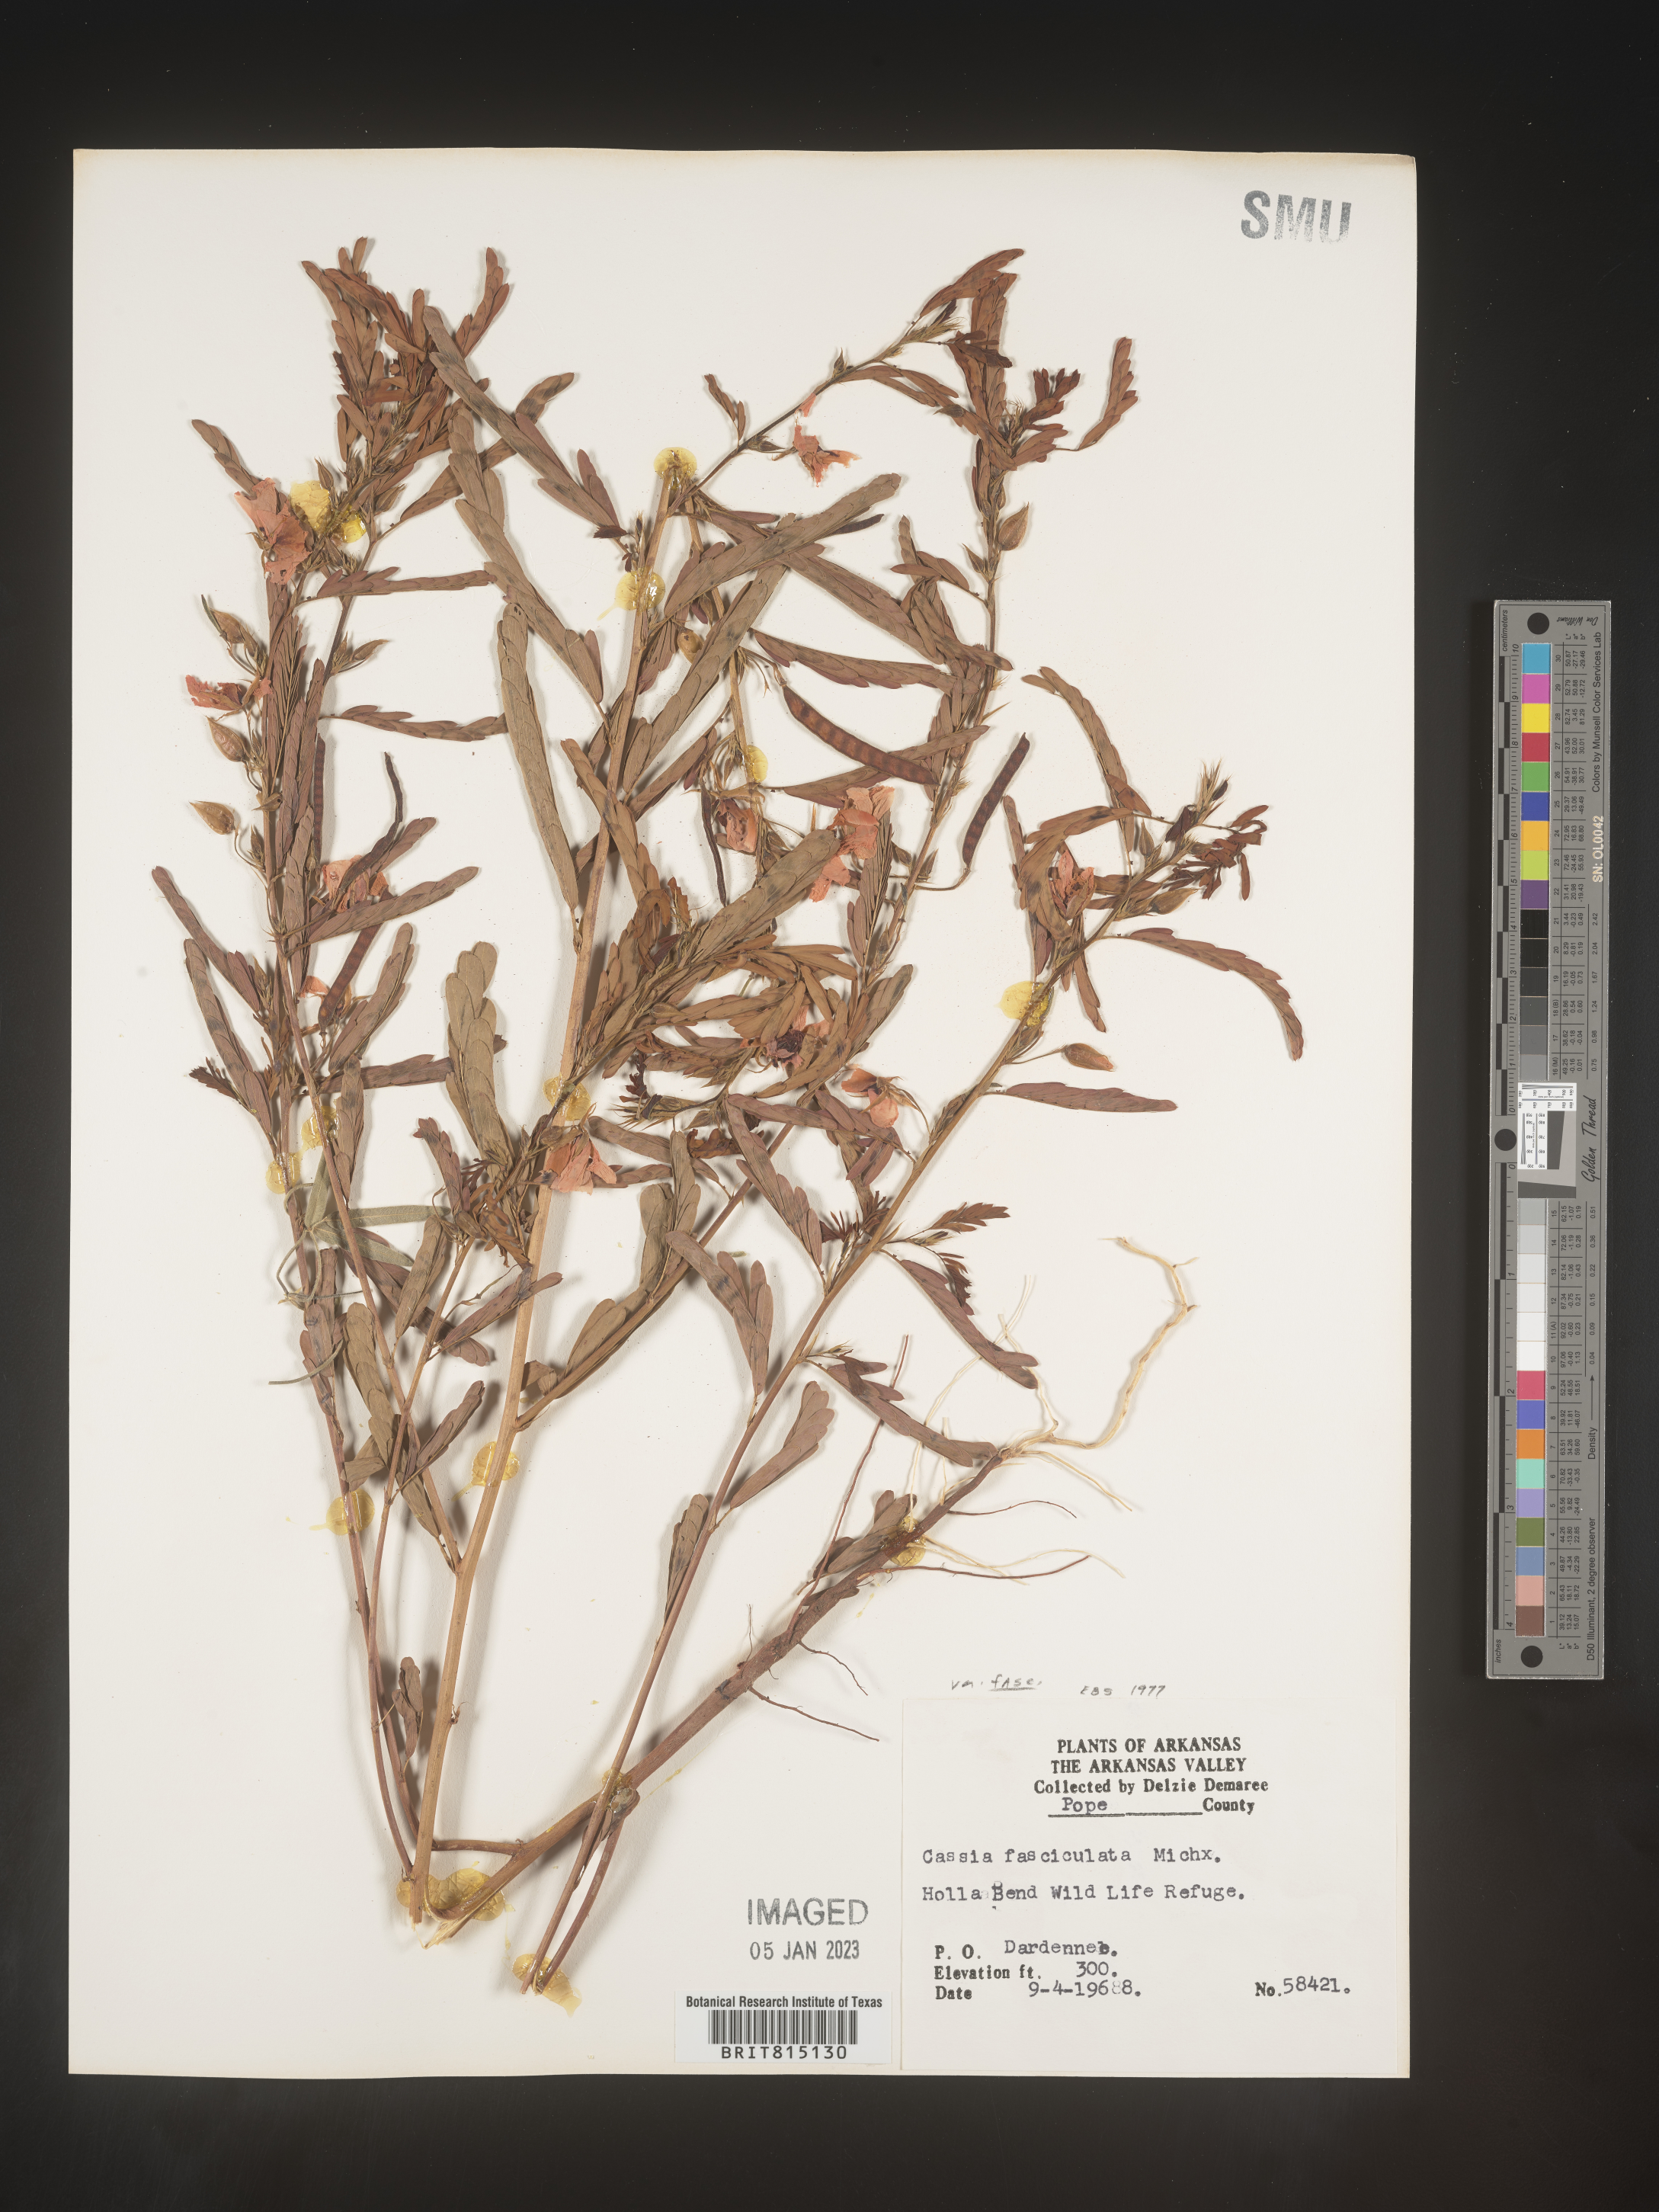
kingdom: Plantae
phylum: Tracheophyta
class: Magnoliopsida
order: Fabales
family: Fabaceae
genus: Chamaecrista
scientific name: Chamaecrista fasciculata
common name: Golden cassia
